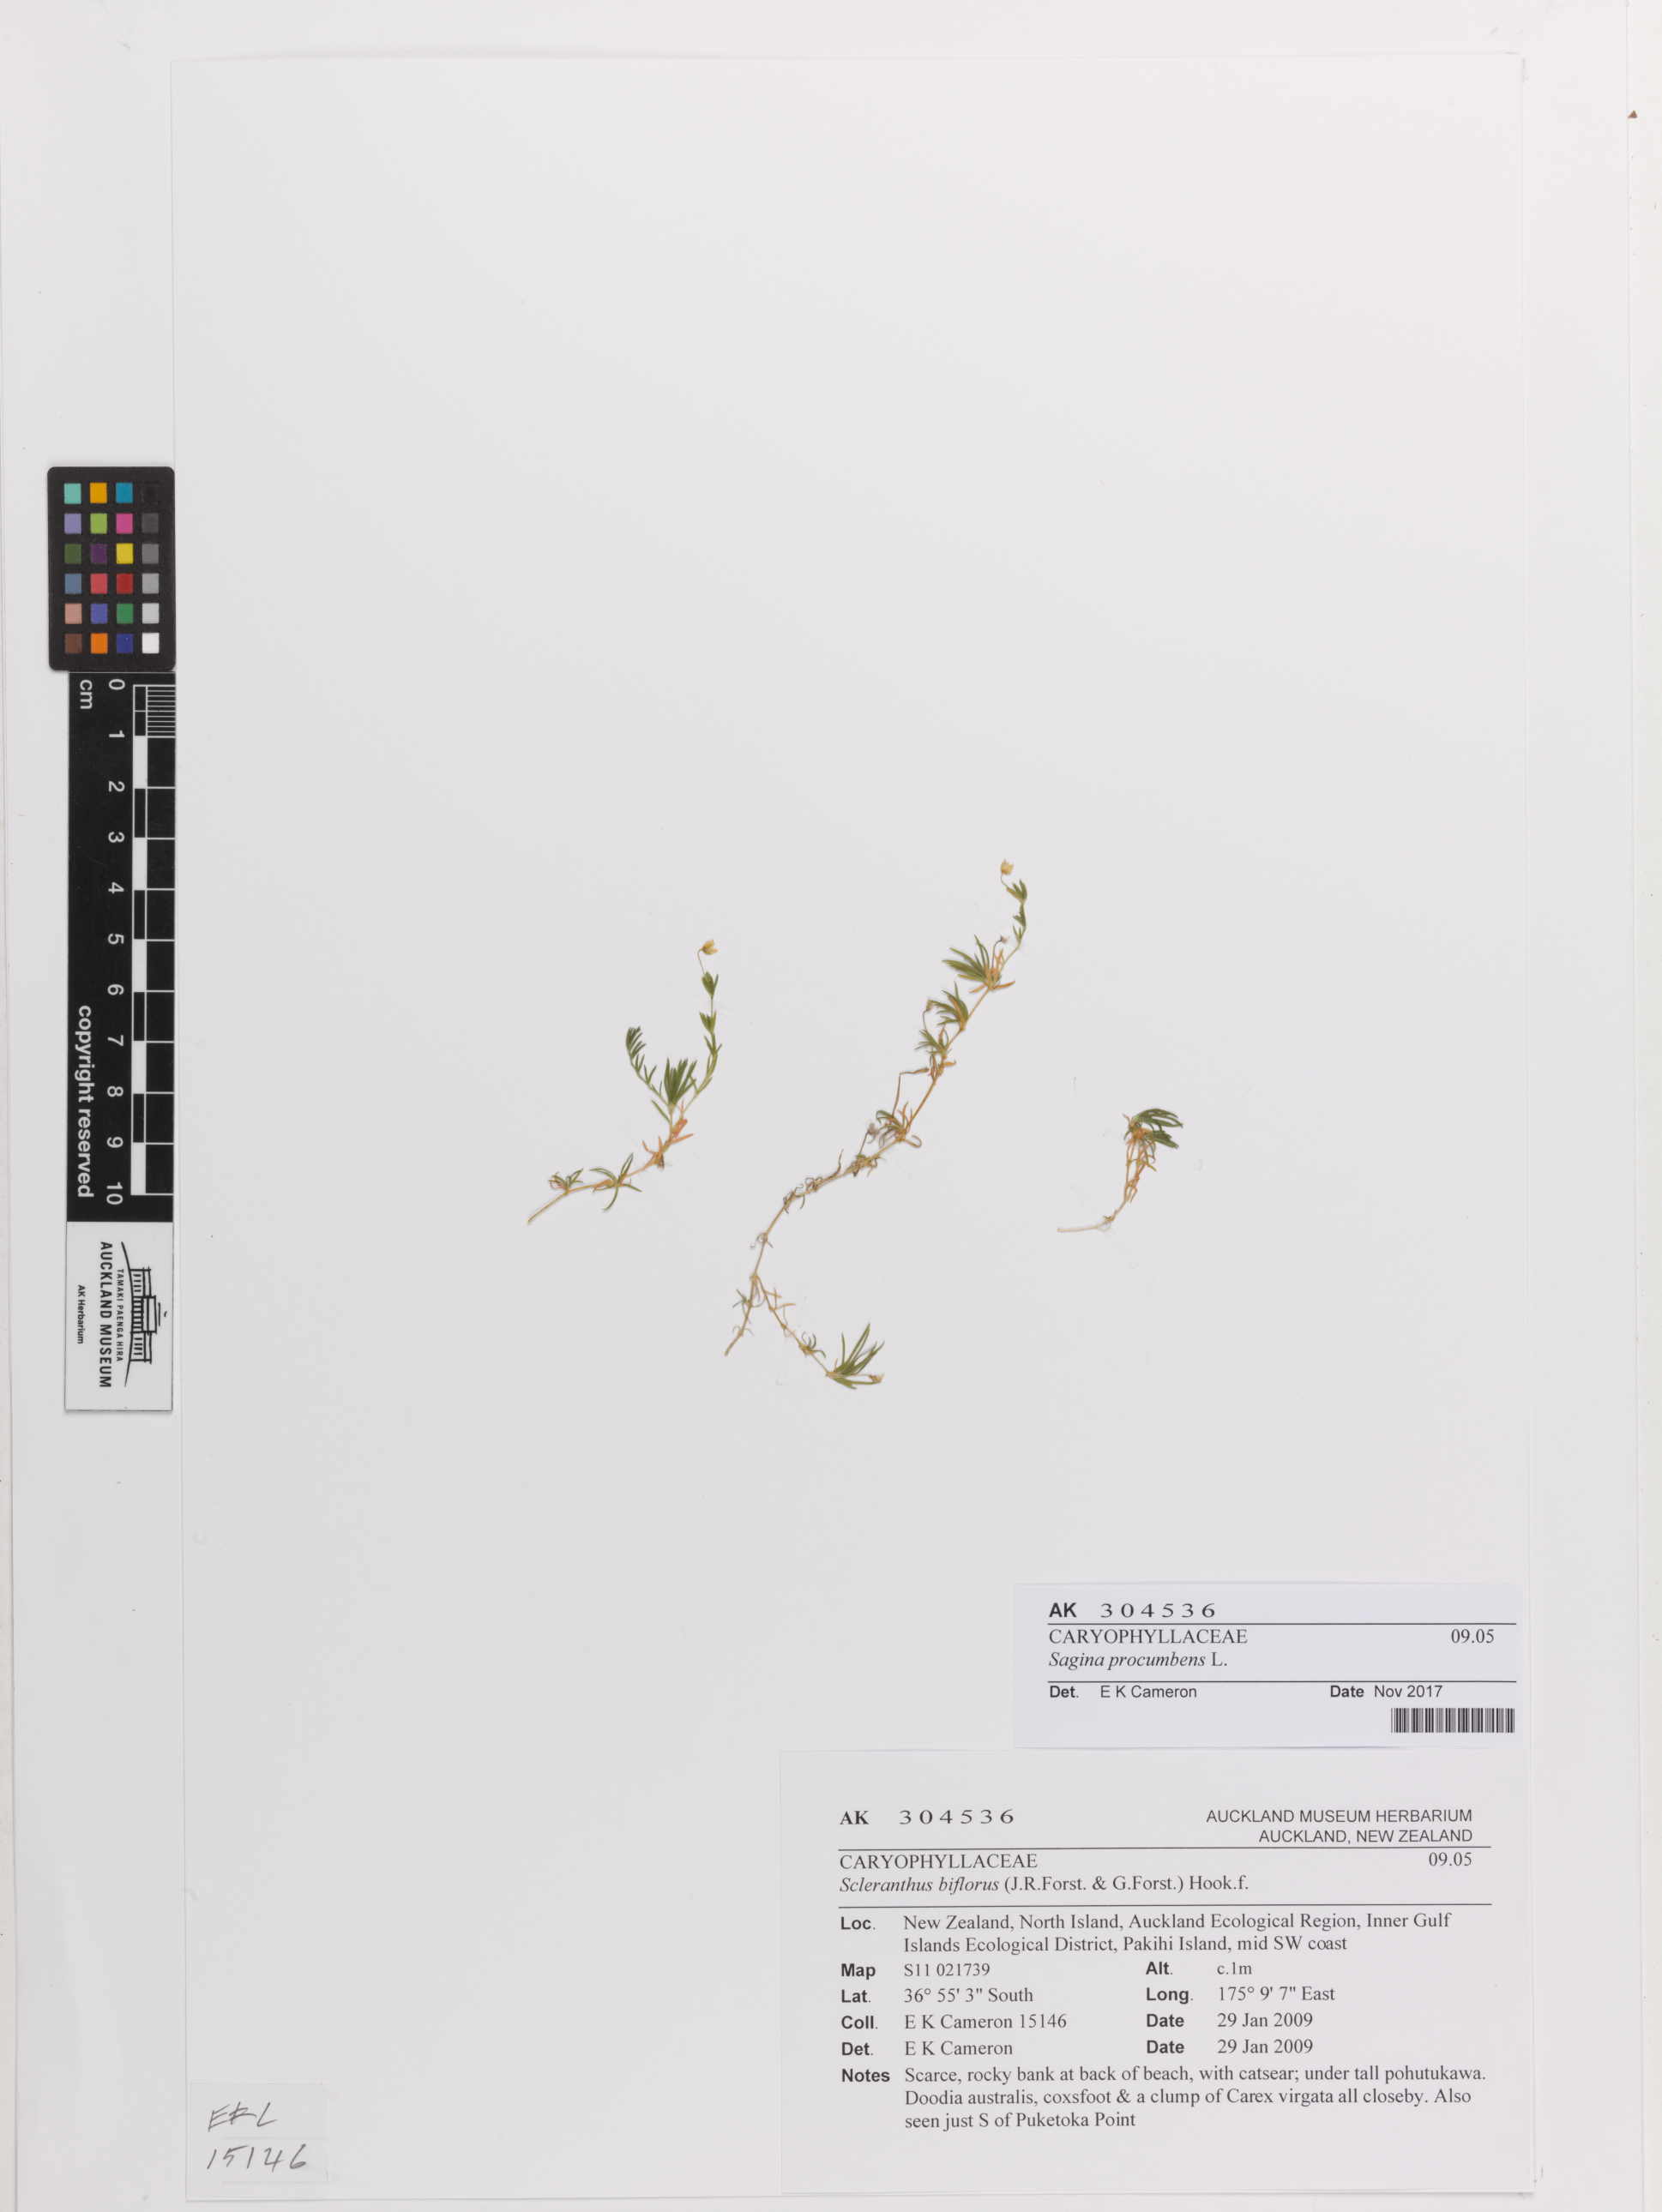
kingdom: Plantae
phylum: Tracheophyta
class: Magnoliopsida
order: Caryophyllales
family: Caryophyllaceae
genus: Sagina
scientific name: Sagina procumbens
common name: Procumbent pearlwort
